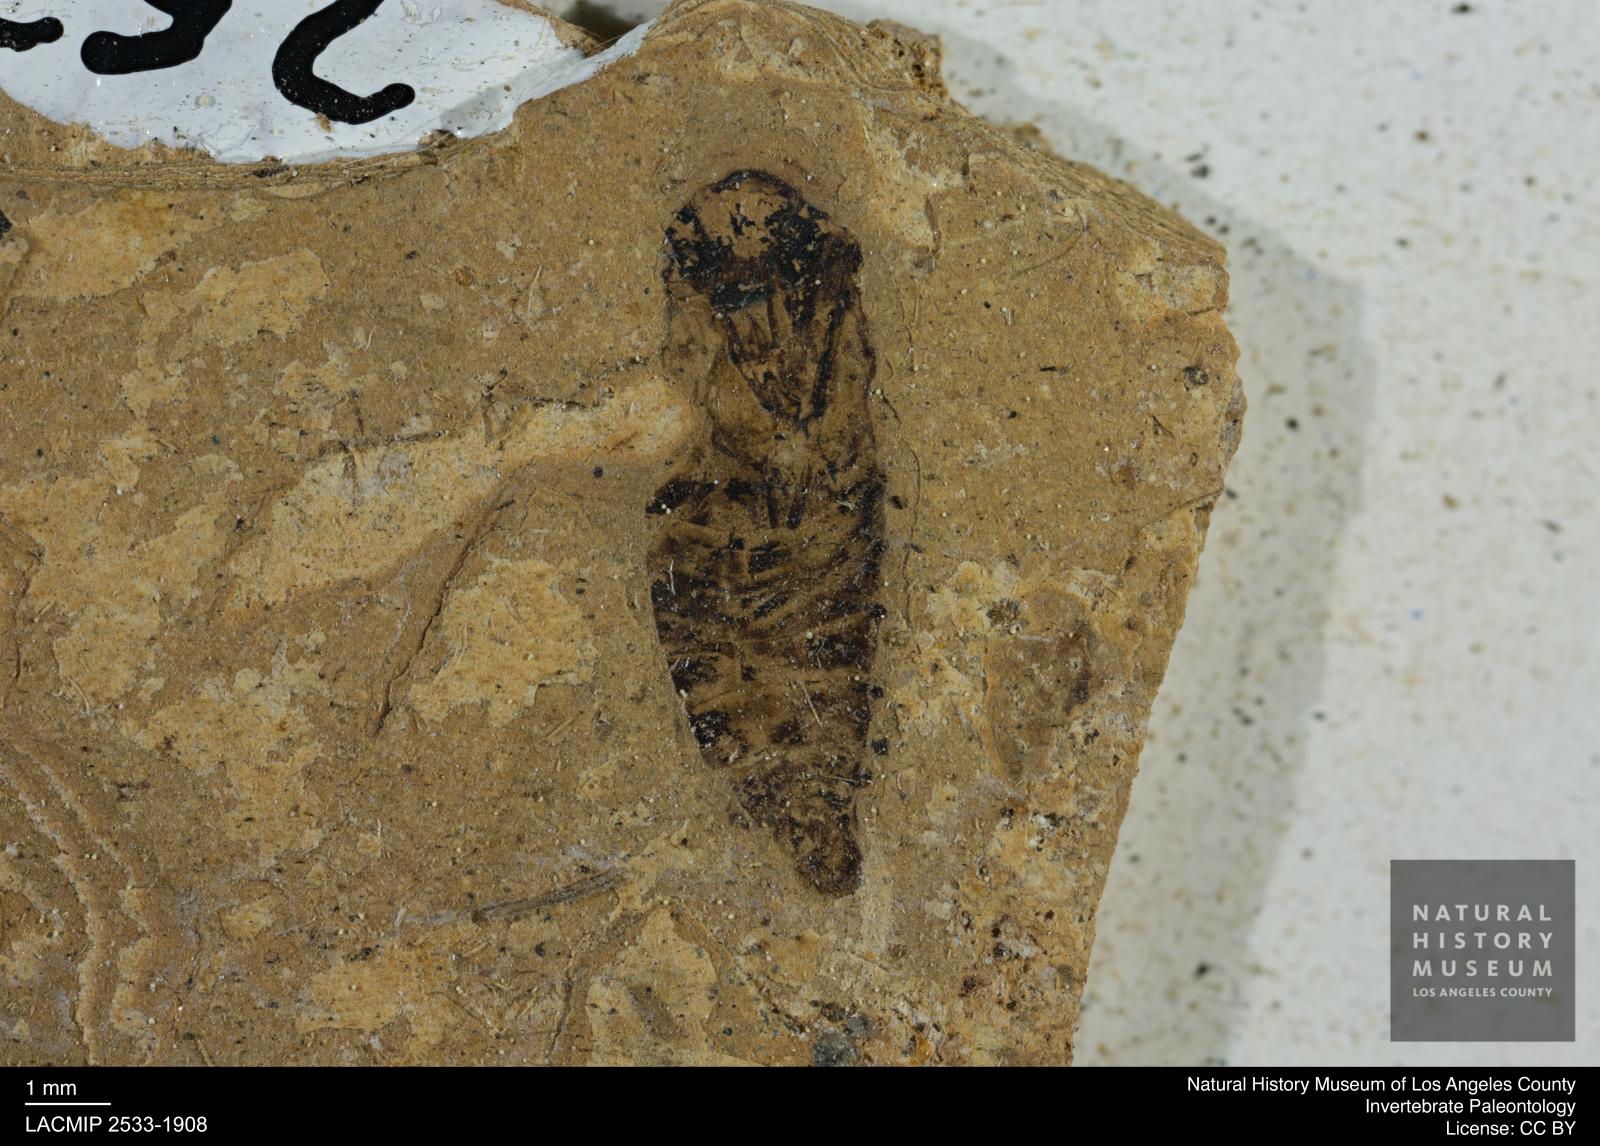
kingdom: Animalia
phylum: Arthropoda
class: Insecta
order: Hemiptera
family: Notonectidae
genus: Anisops
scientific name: Anisops Notonecta deichmuelleri
